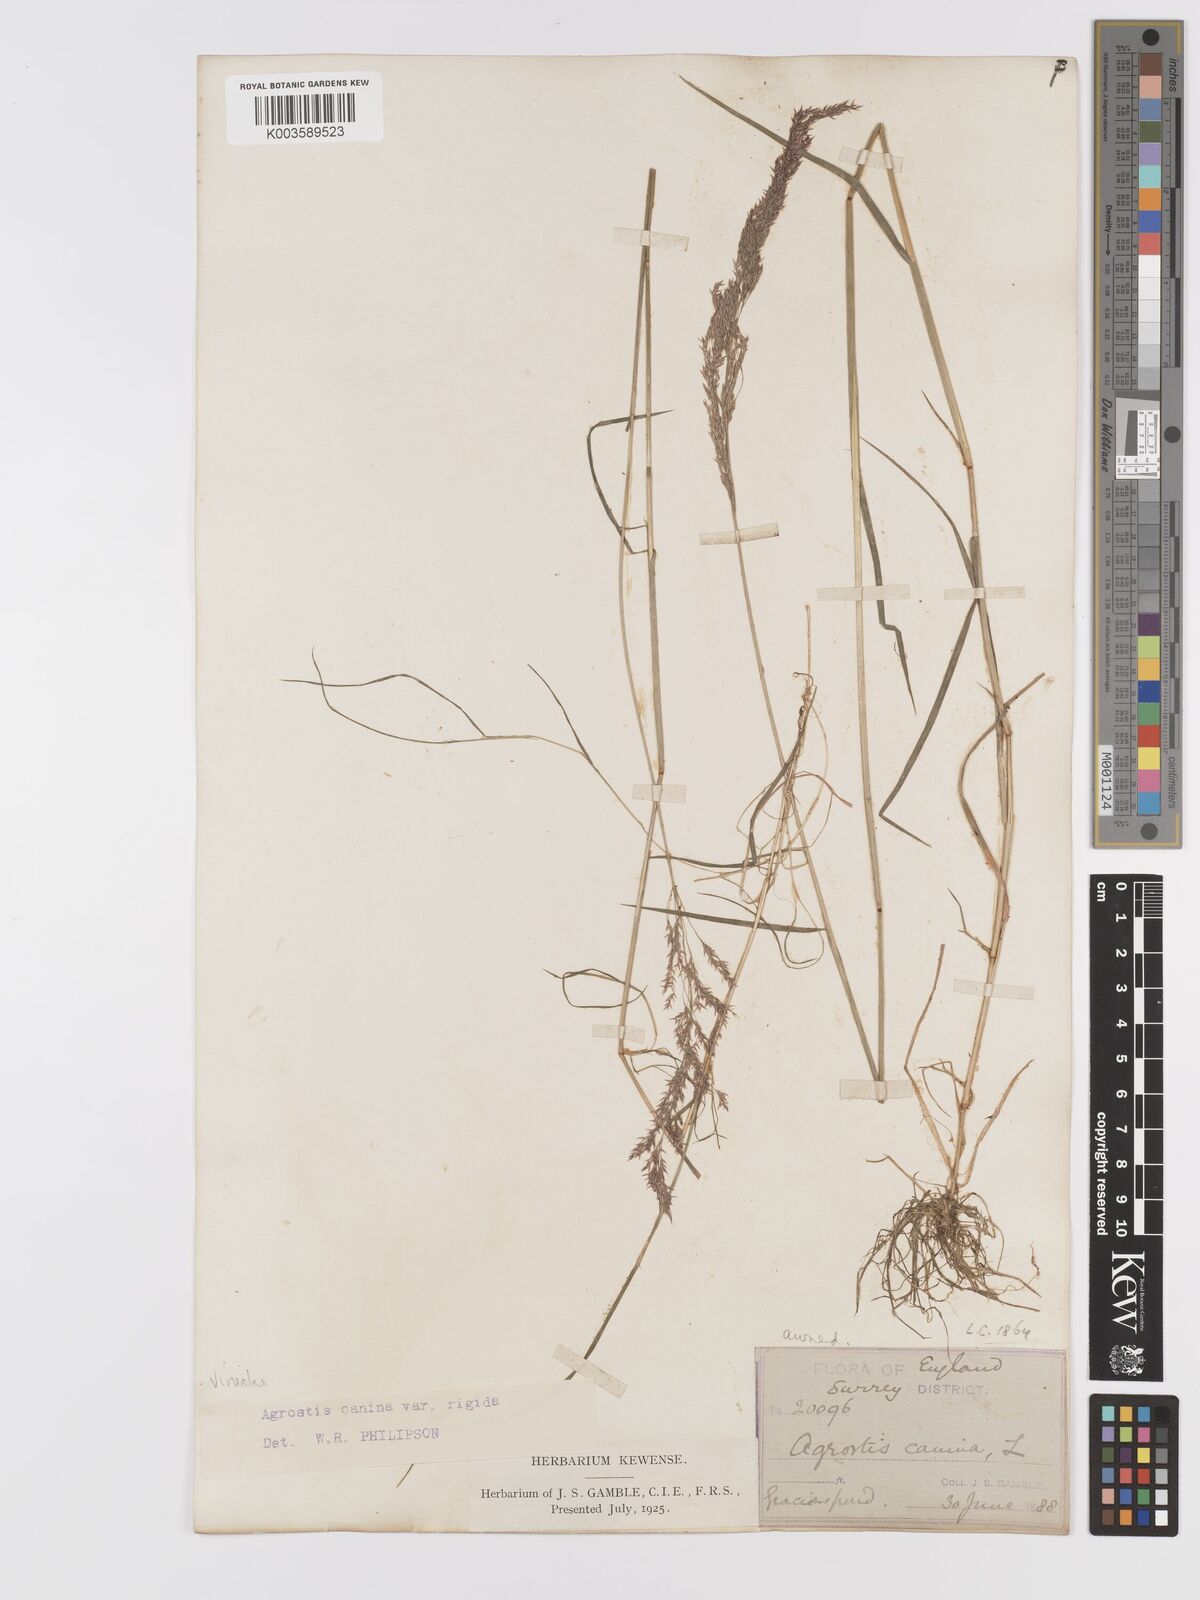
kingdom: Plantae
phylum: Tracheophyta
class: Liliopsida
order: Poales
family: Poaceae
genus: Agrostis
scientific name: Agrostis
